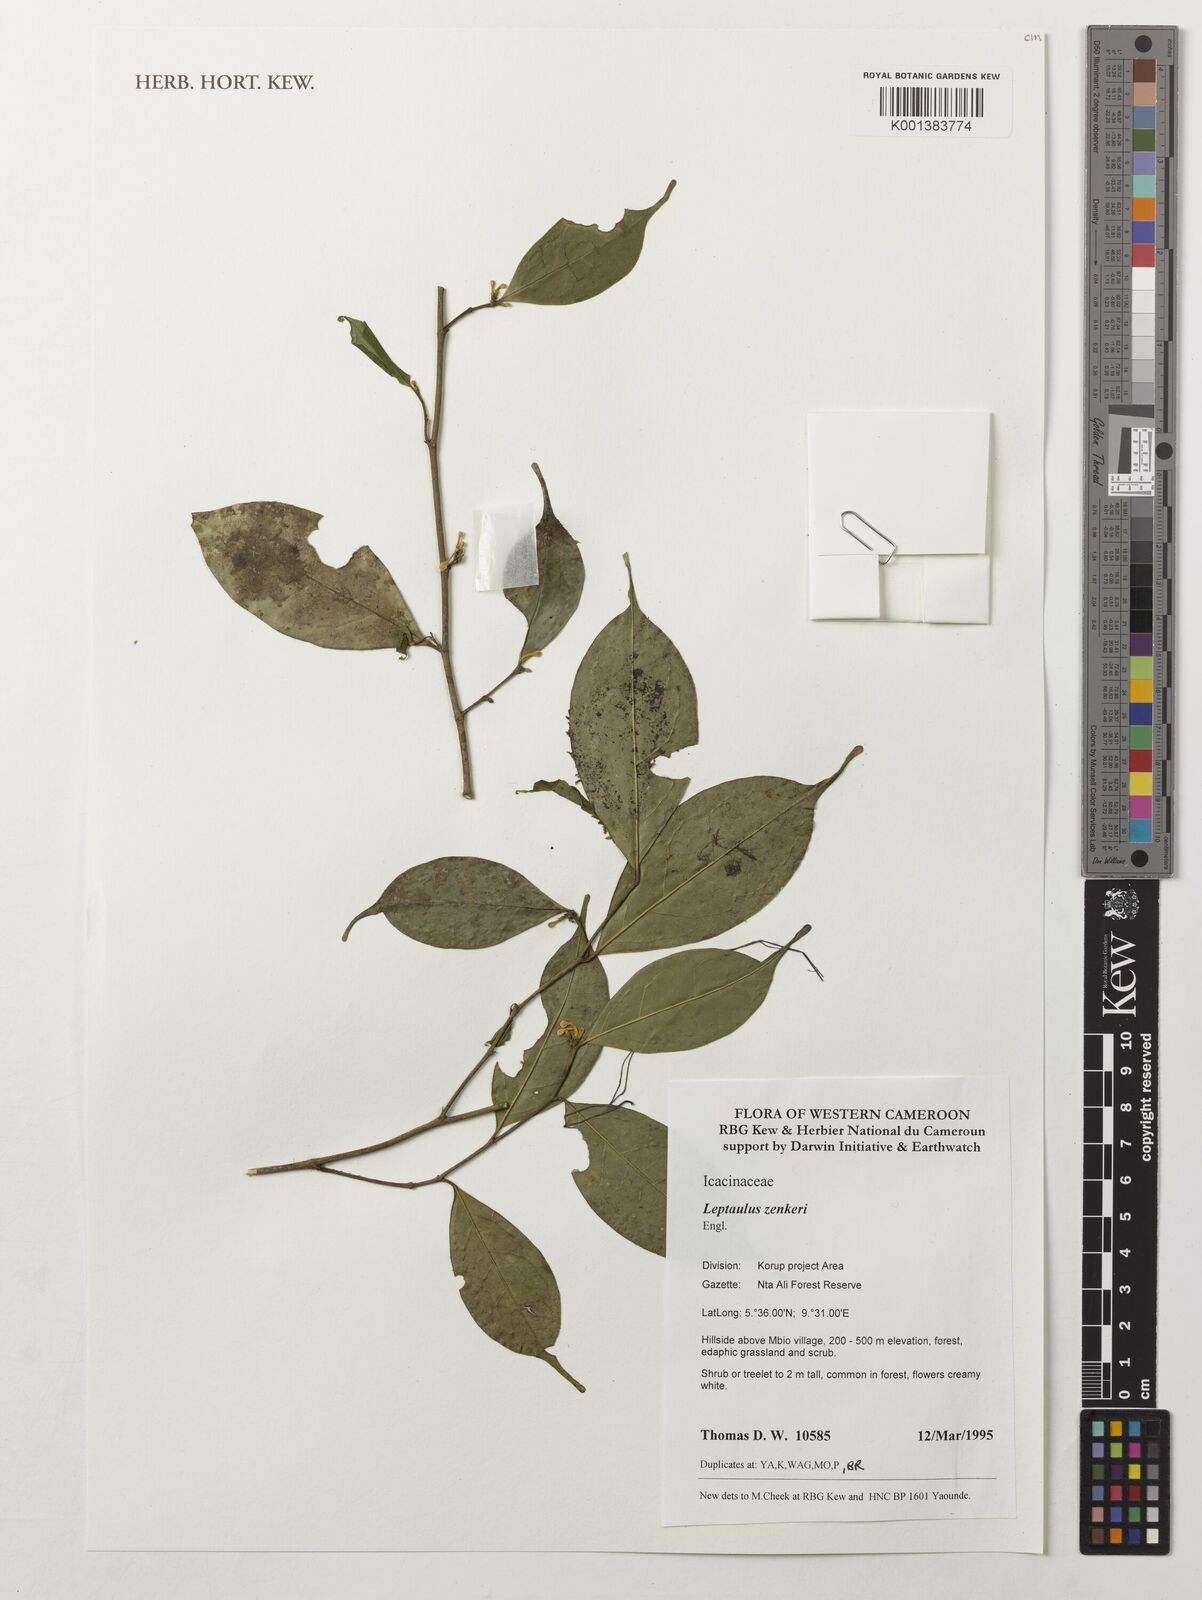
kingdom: Plantae
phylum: Tracheophyta
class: Magnoliopsida
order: Cardiopteridales
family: Cardiopteridaceae
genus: Leptaulus
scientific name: Leptaulus congolanus
